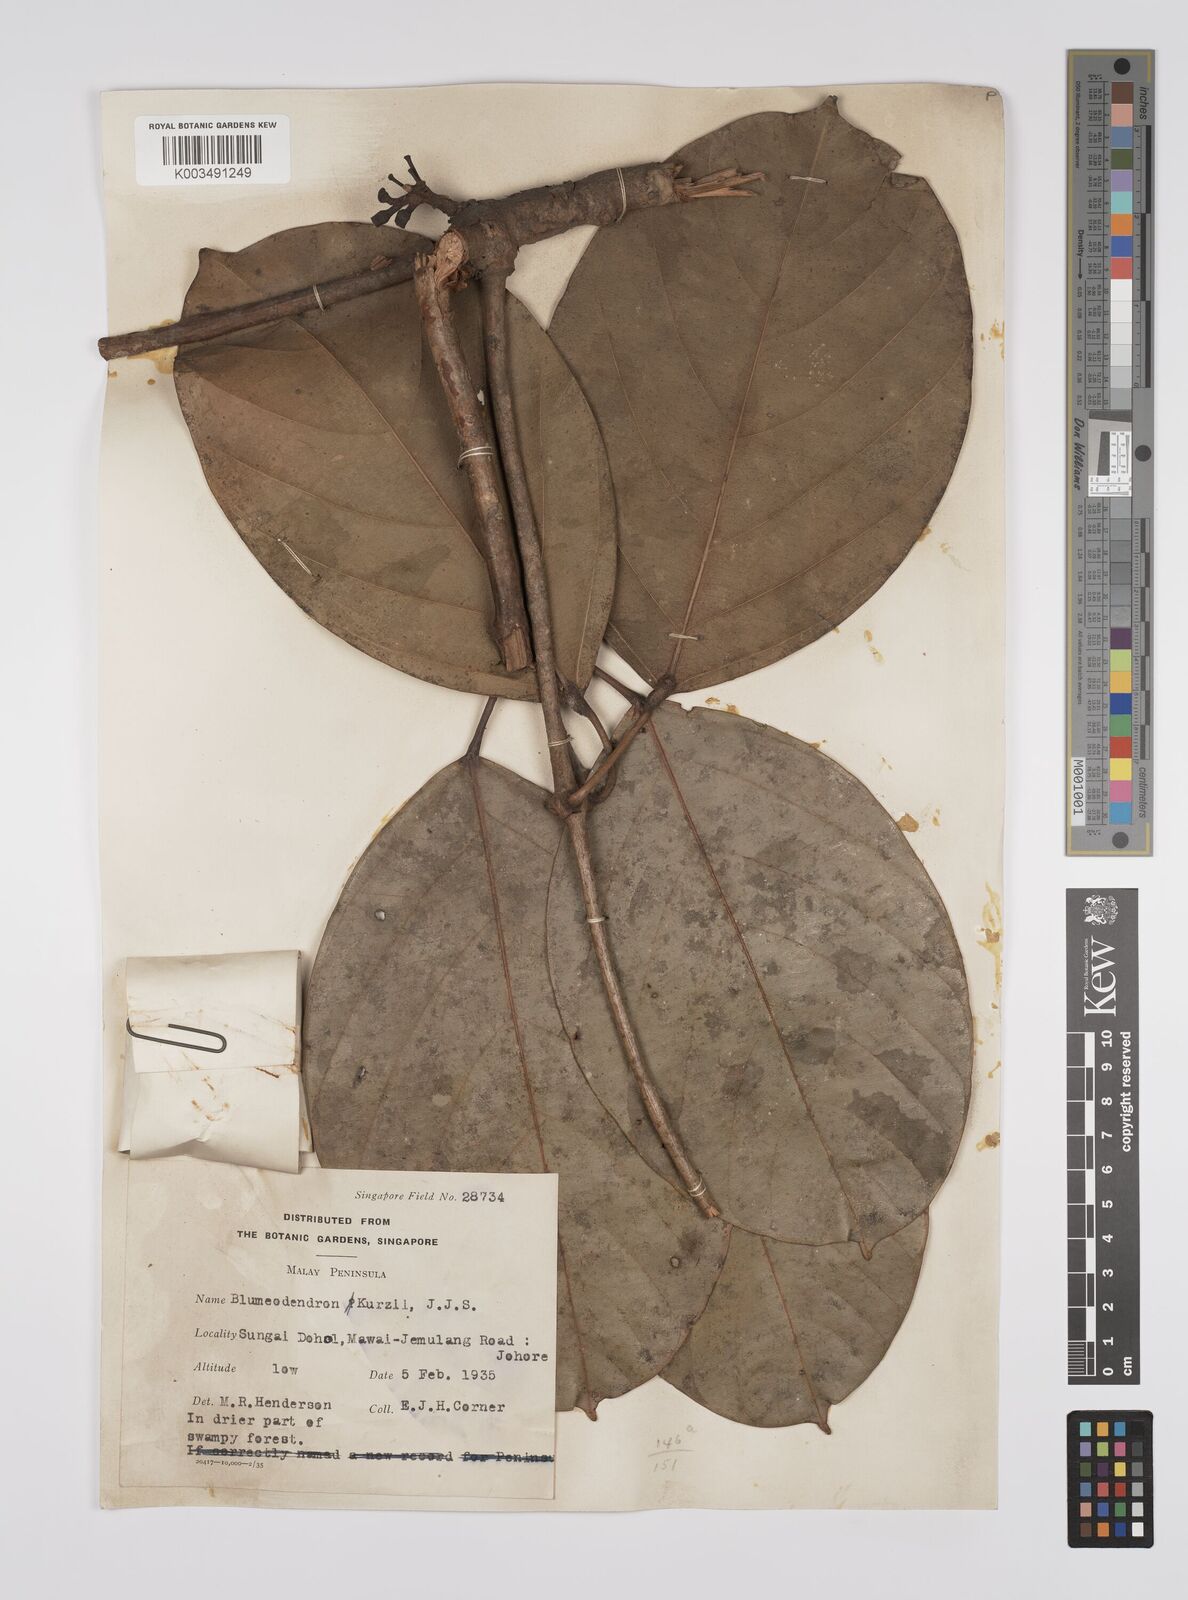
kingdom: Plantae
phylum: Tracheophyta
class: Magnoliopsida
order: Malpighiales
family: Euphorbiaceae
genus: Blumeodendron
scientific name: Blumeodendron kurzii
